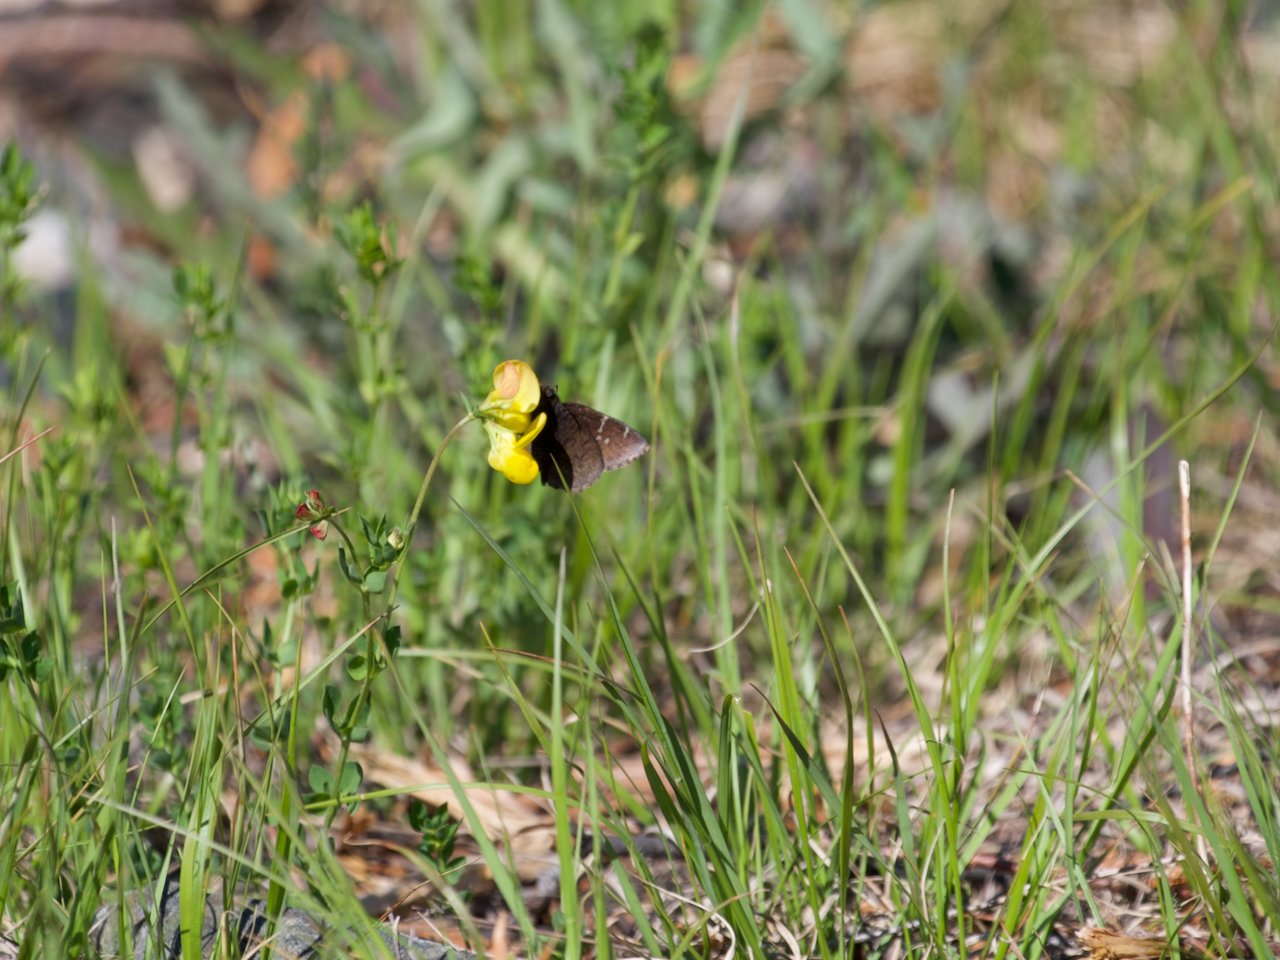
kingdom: Animalia
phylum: Arthropoda
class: Insecta
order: Lepidoptera
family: Hesperiidae
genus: Autochton
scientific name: Autochton
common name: Northern Cloudywing
